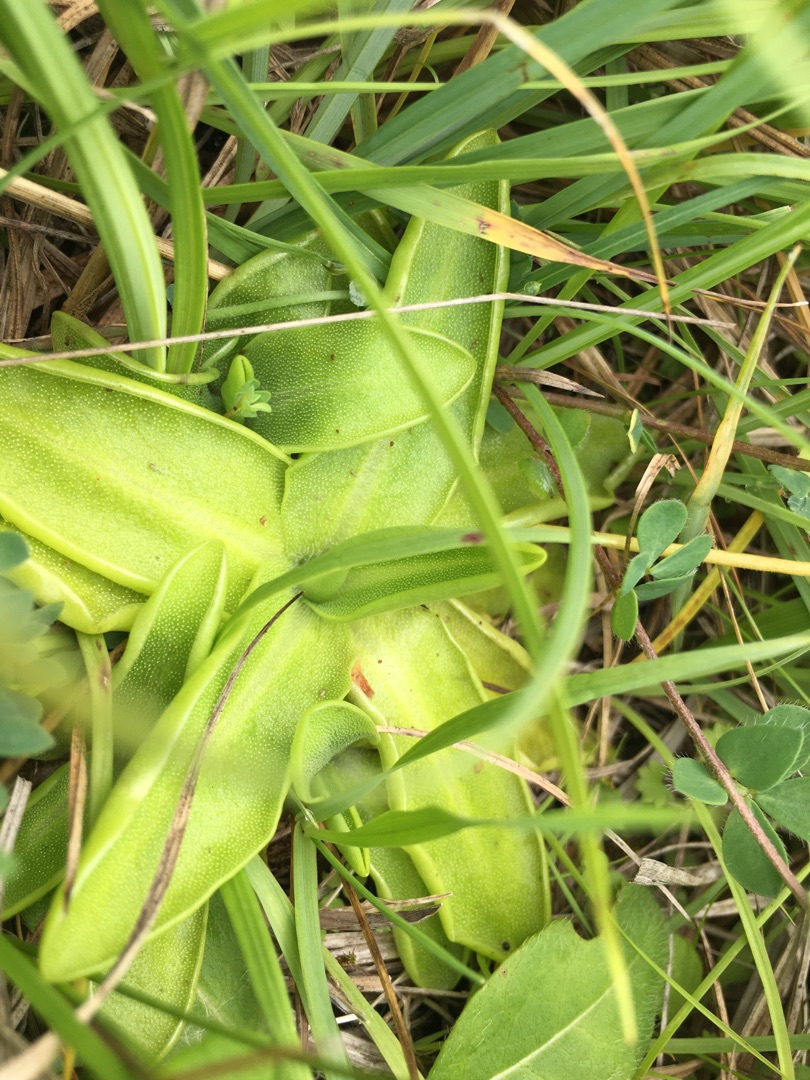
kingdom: Plantae
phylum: Tracheophyta
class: Magnoliopsida
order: Lamiales
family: Lentibulariaceae
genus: Pinguicula
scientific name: Pinguicula vulgaris
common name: Vibefedt
